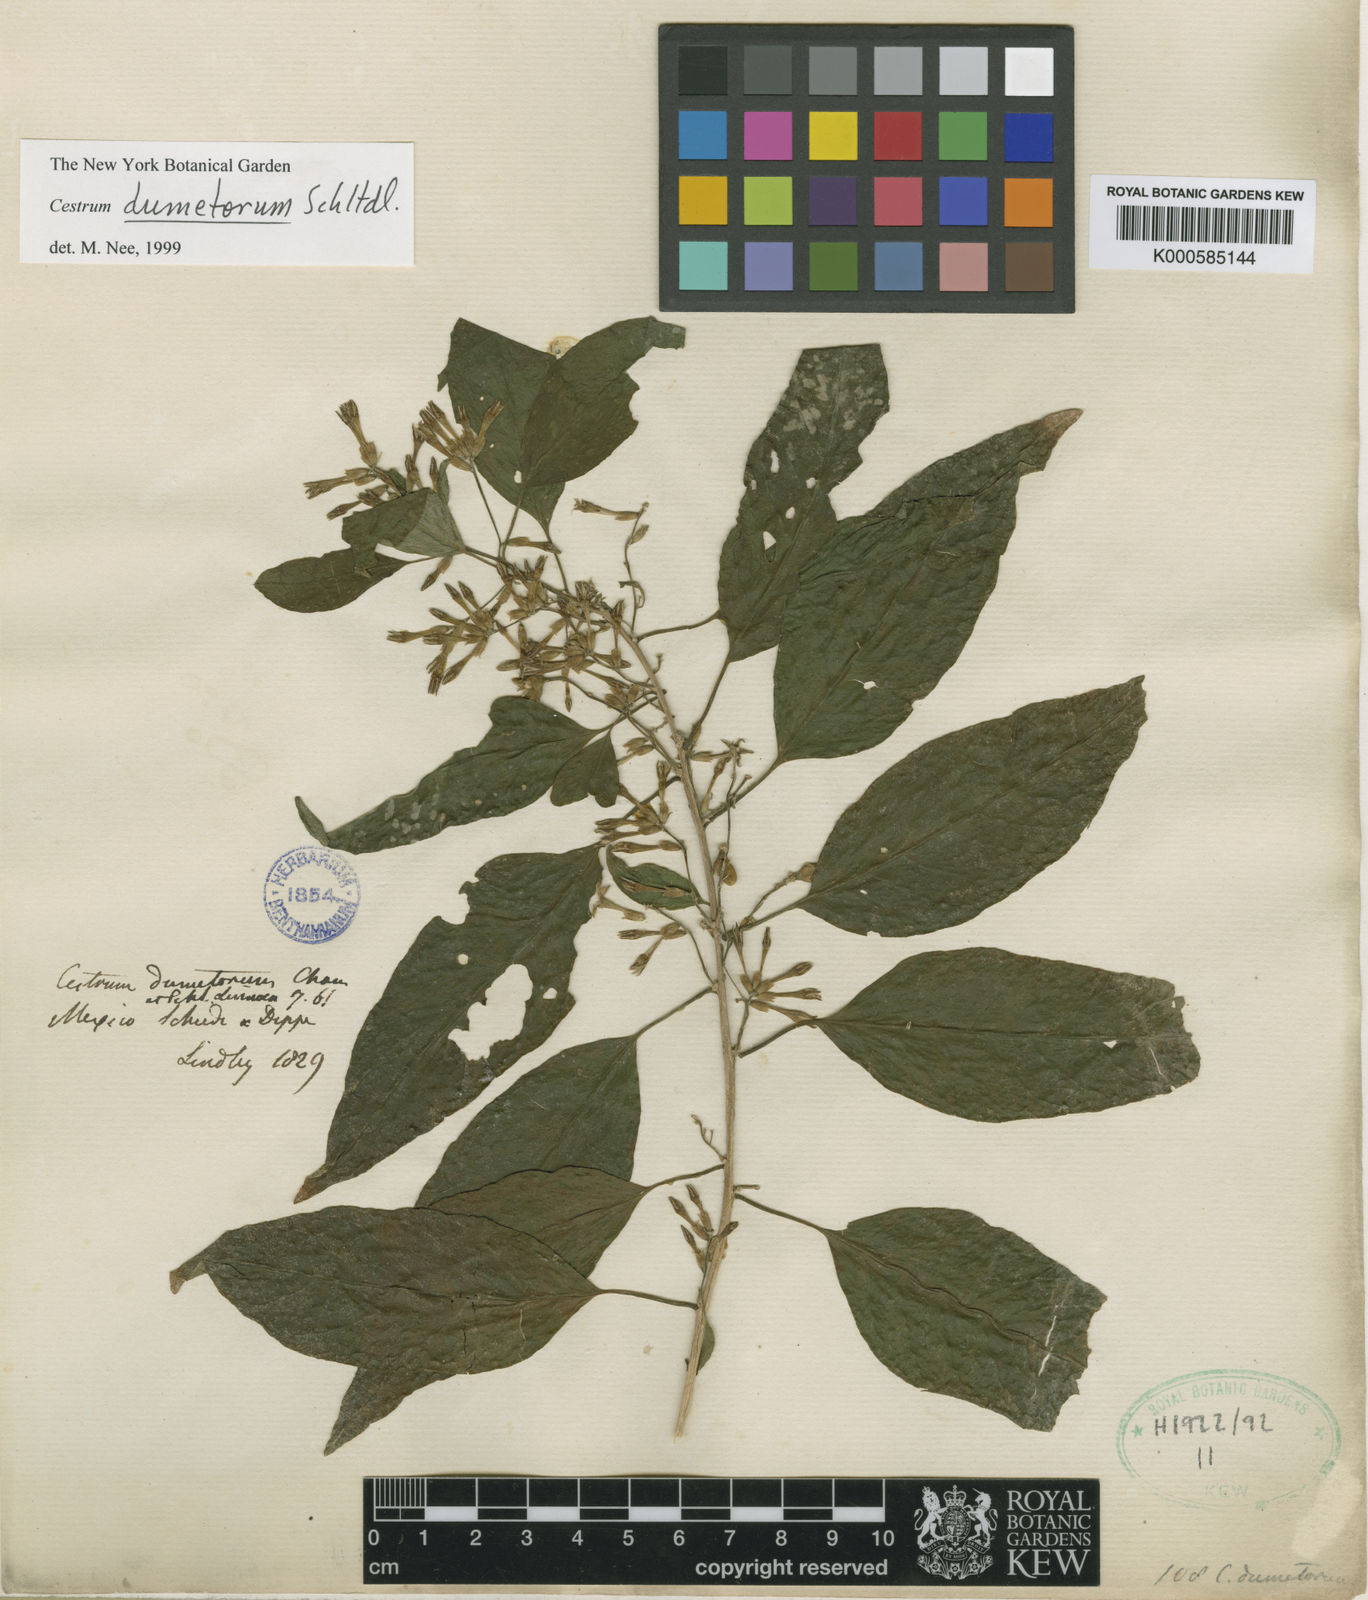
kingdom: Plantae
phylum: Tracheophyta
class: Magnoliopsida
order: Solanales
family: Solanaceae
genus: Cestrum
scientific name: Cestrum dumetorum
